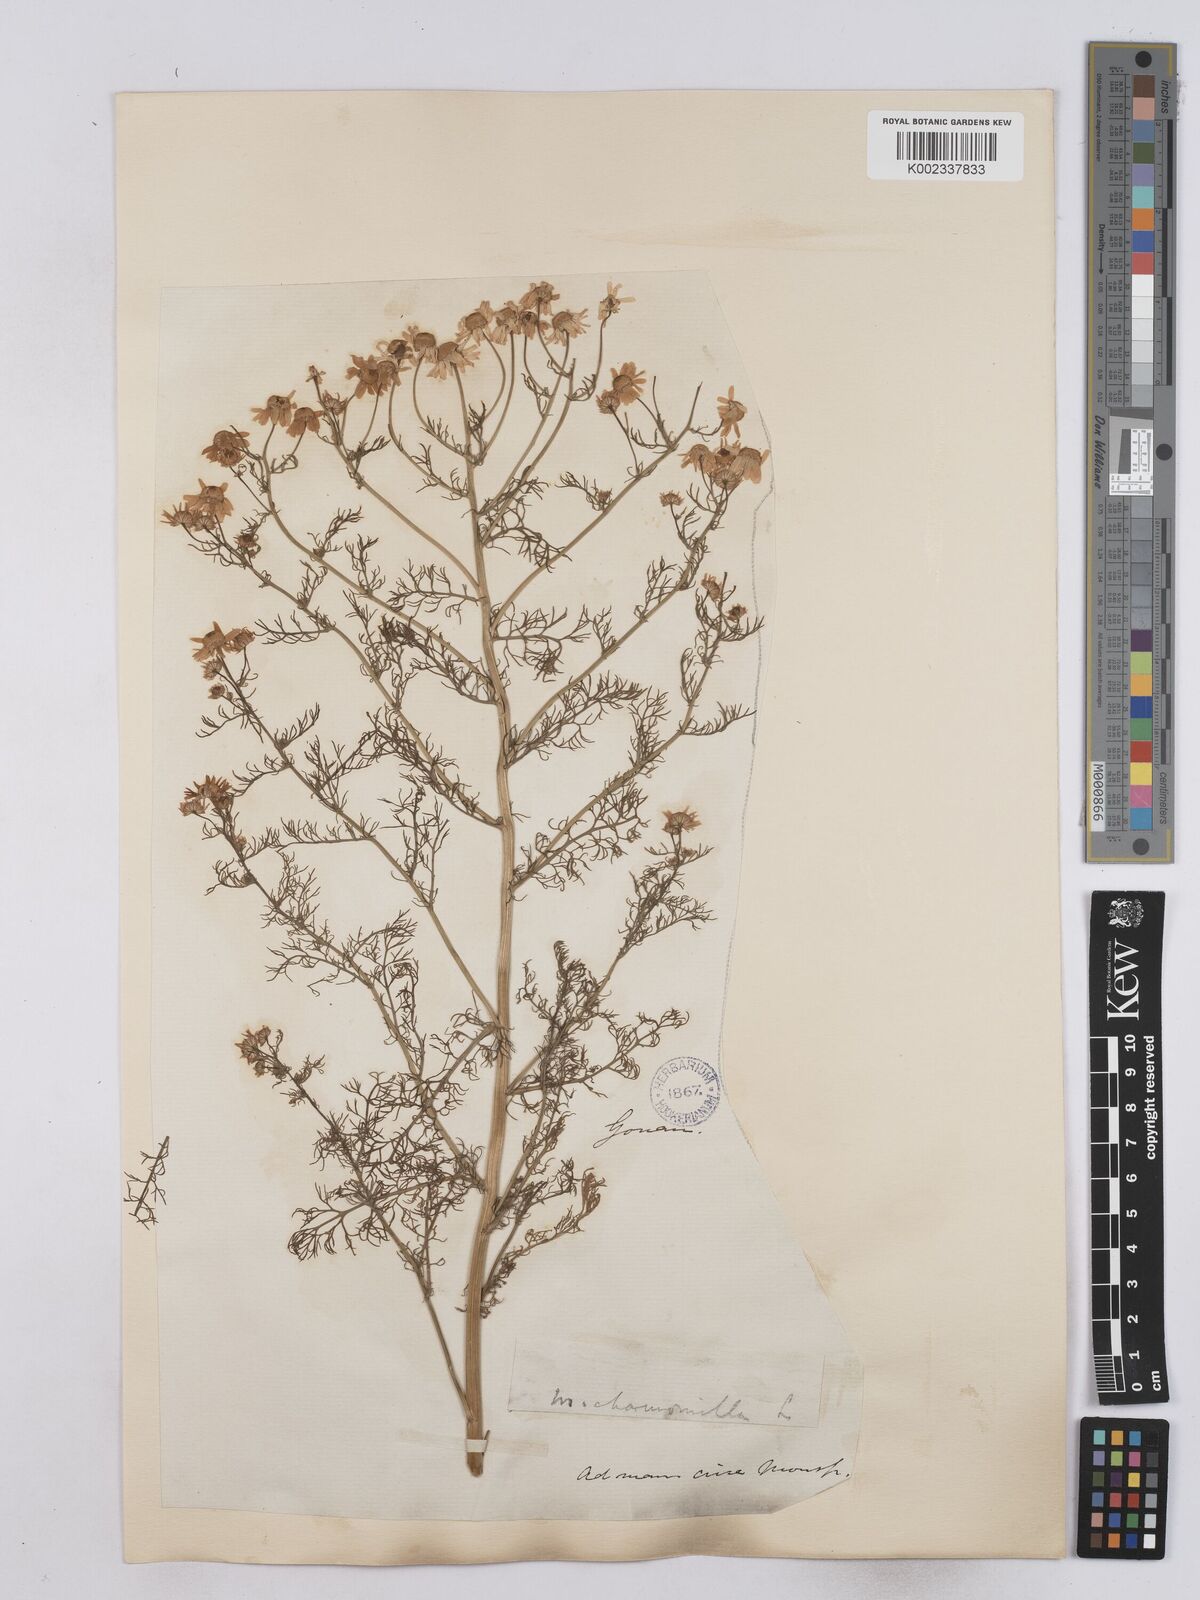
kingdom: Plantae
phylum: Tracheophyta
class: Magnoliopsida
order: Asterales
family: Asteraceae
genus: Matricaria
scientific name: Matricaria chamomilla
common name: Scented mayweed
